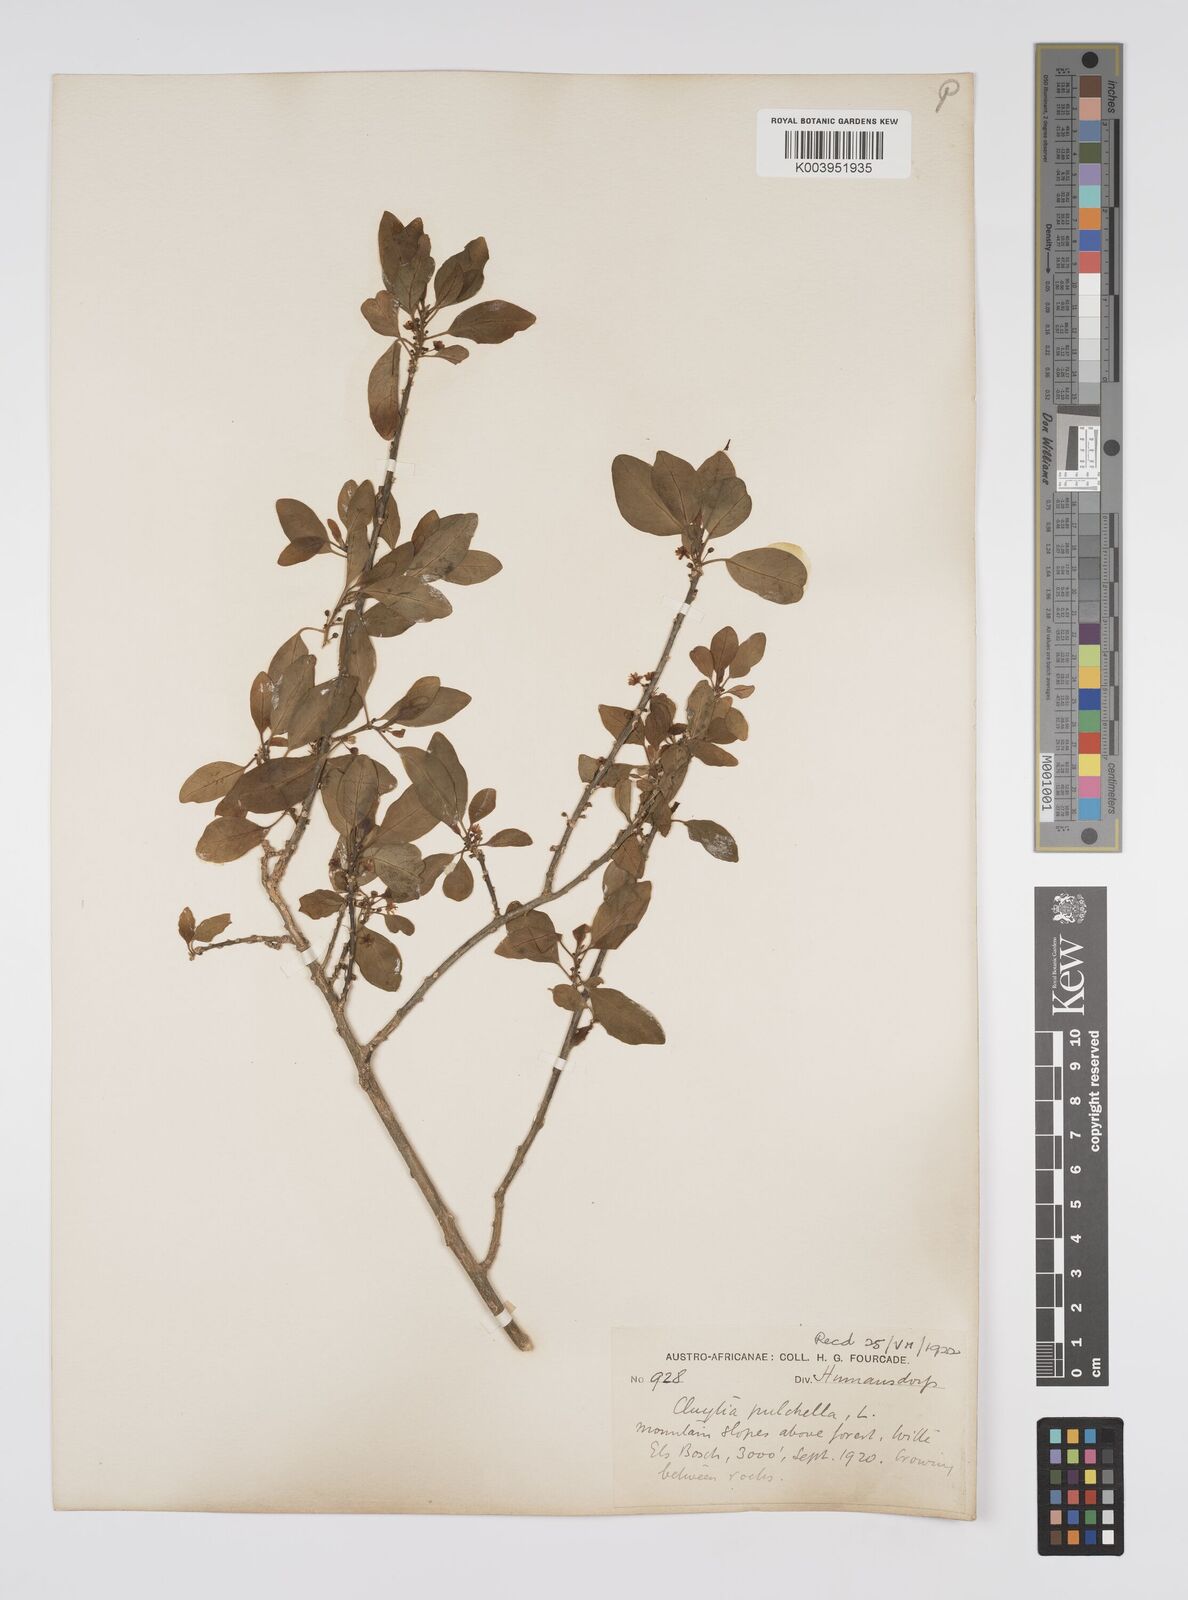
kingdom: Plantae
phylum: Tracheophyta
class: Magnoliopsida
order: Malpighiales
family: Peraceae
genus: Clutia
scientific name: Clutia pulchella
